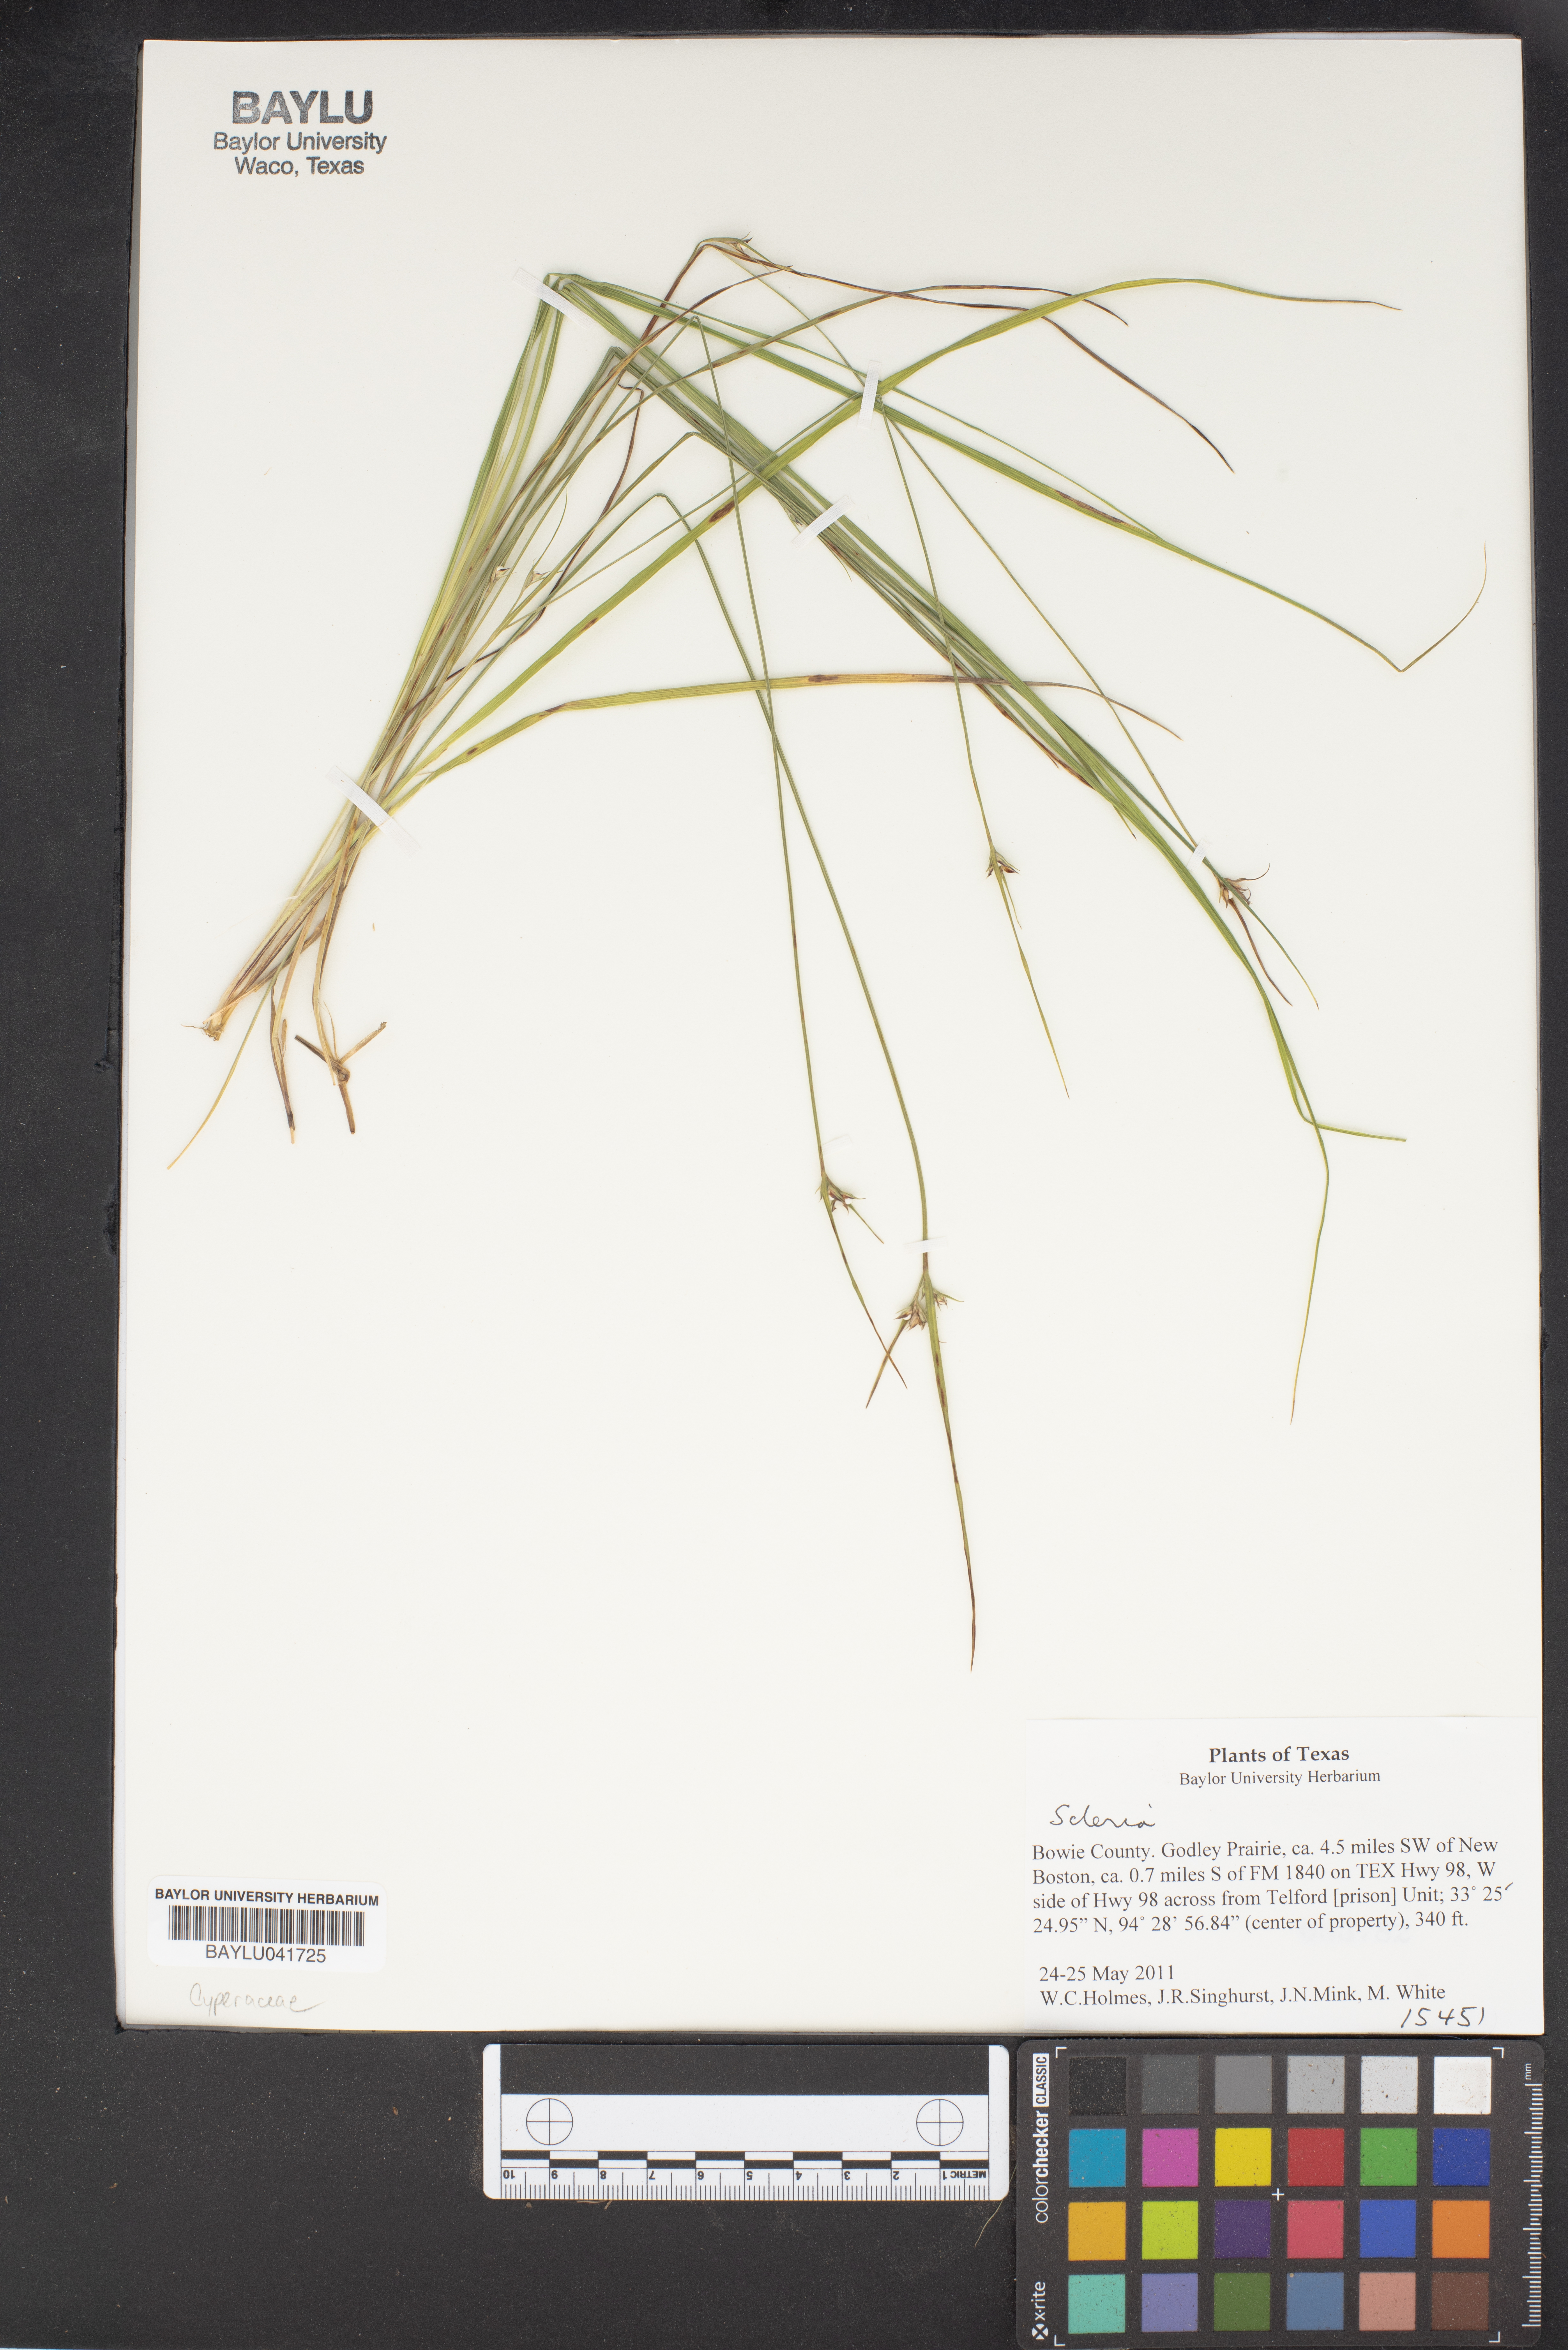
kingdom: Plantae
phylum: Tracheophyta
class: Liliopsida
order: Poales
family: Cyperaceae
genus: Scleria
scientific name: Scleria
